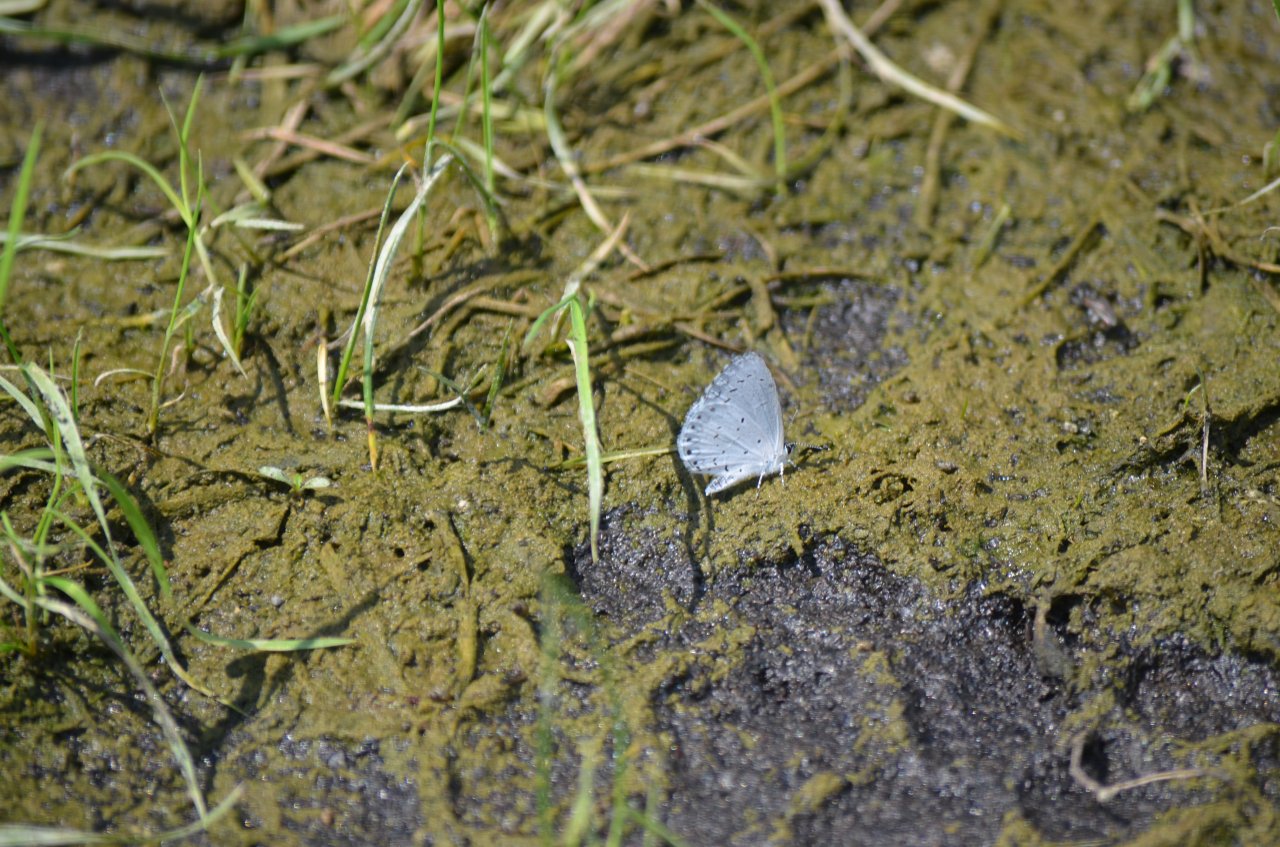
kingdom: Animalia
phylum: Arthropoda
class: Insecta
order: Lepidoptera
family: Lycaenidae
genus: Cyaniris
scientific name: Cyaniris neglecta
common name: Summer Azure
